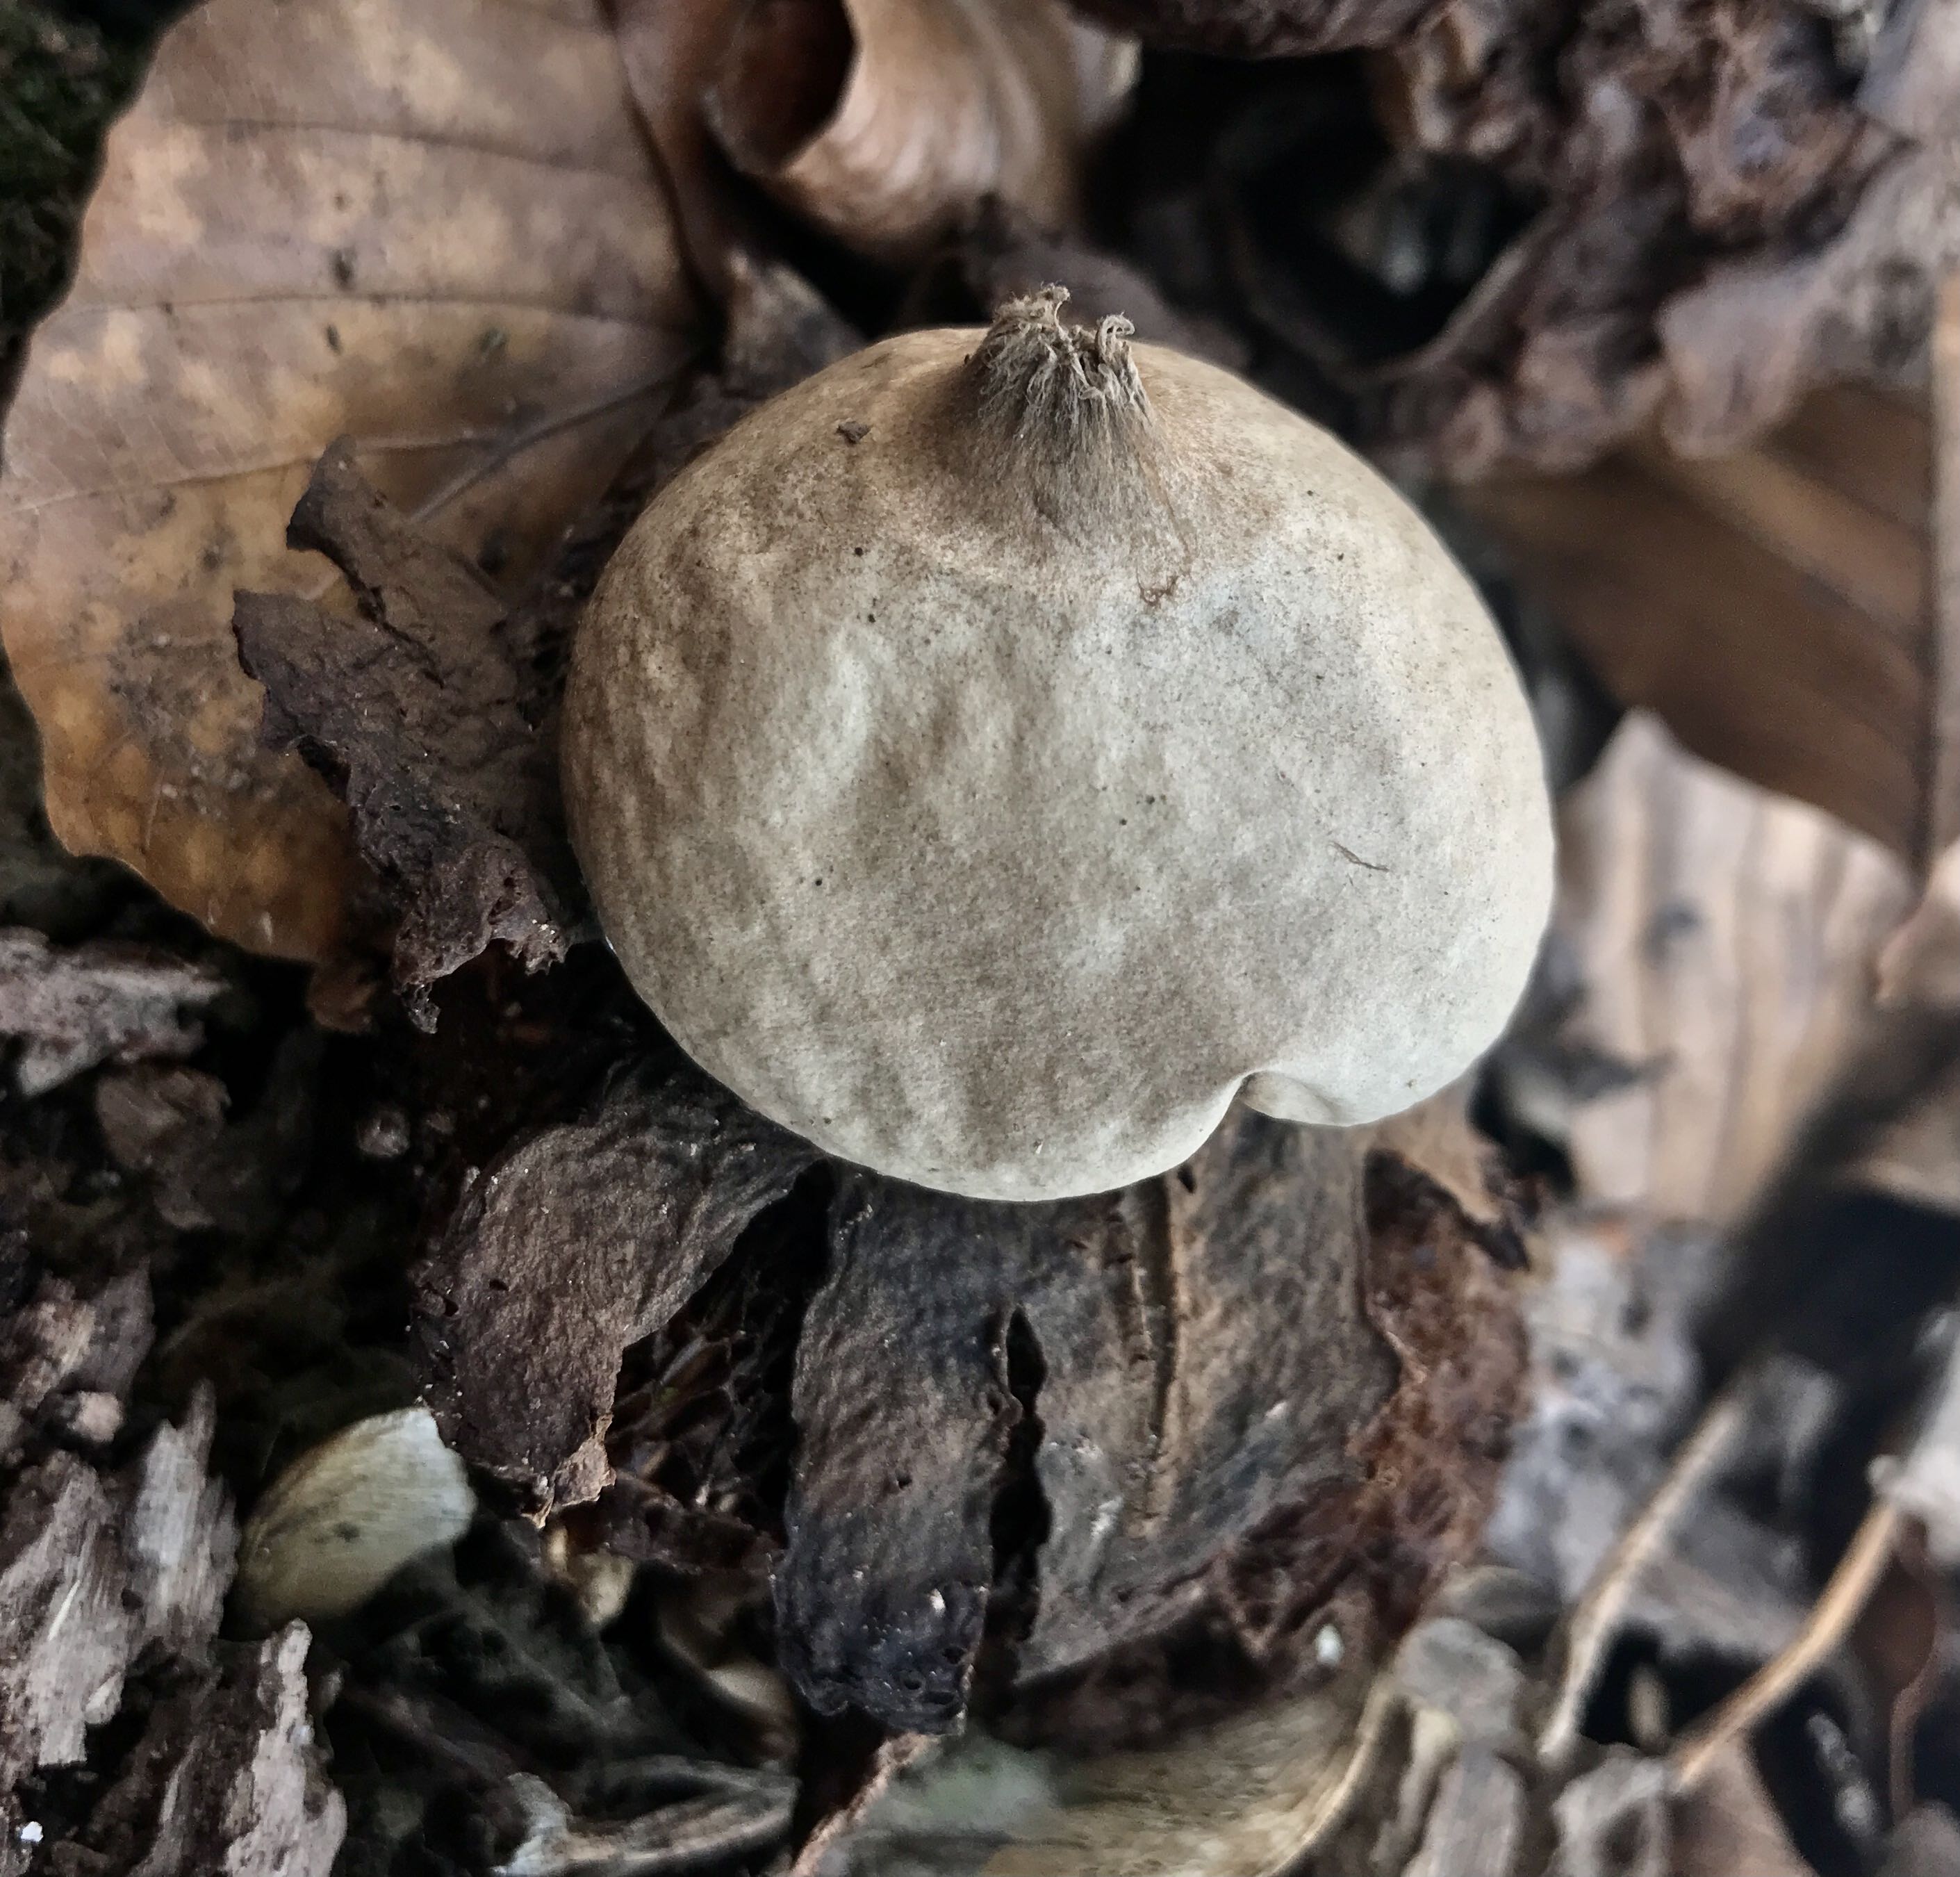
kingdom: Fungi
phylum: Basidiomycota
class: Agaricomycetes
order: Geastrales
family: Geastraceae
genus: Geastrum
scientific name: Geastrum michelianum
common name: kødet stjernebold
